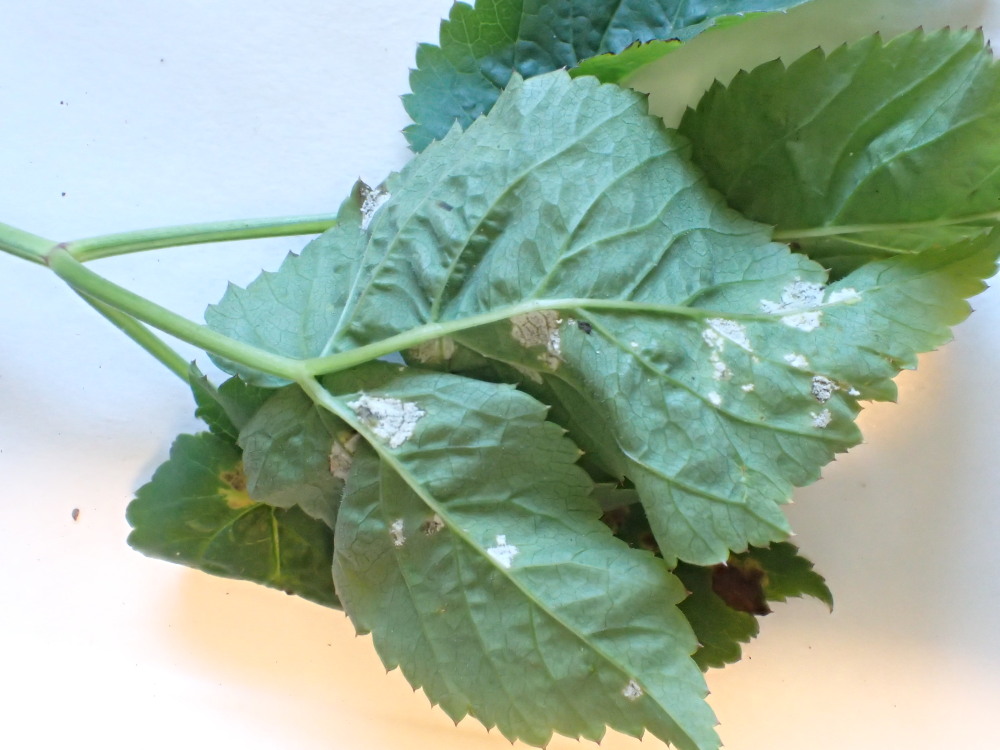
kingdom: Chromista
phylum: Oomycota
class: Peronosporea
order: Peronosporales
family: Peronosporaceae
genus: Peronospora
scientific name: Peronospora crustosa
